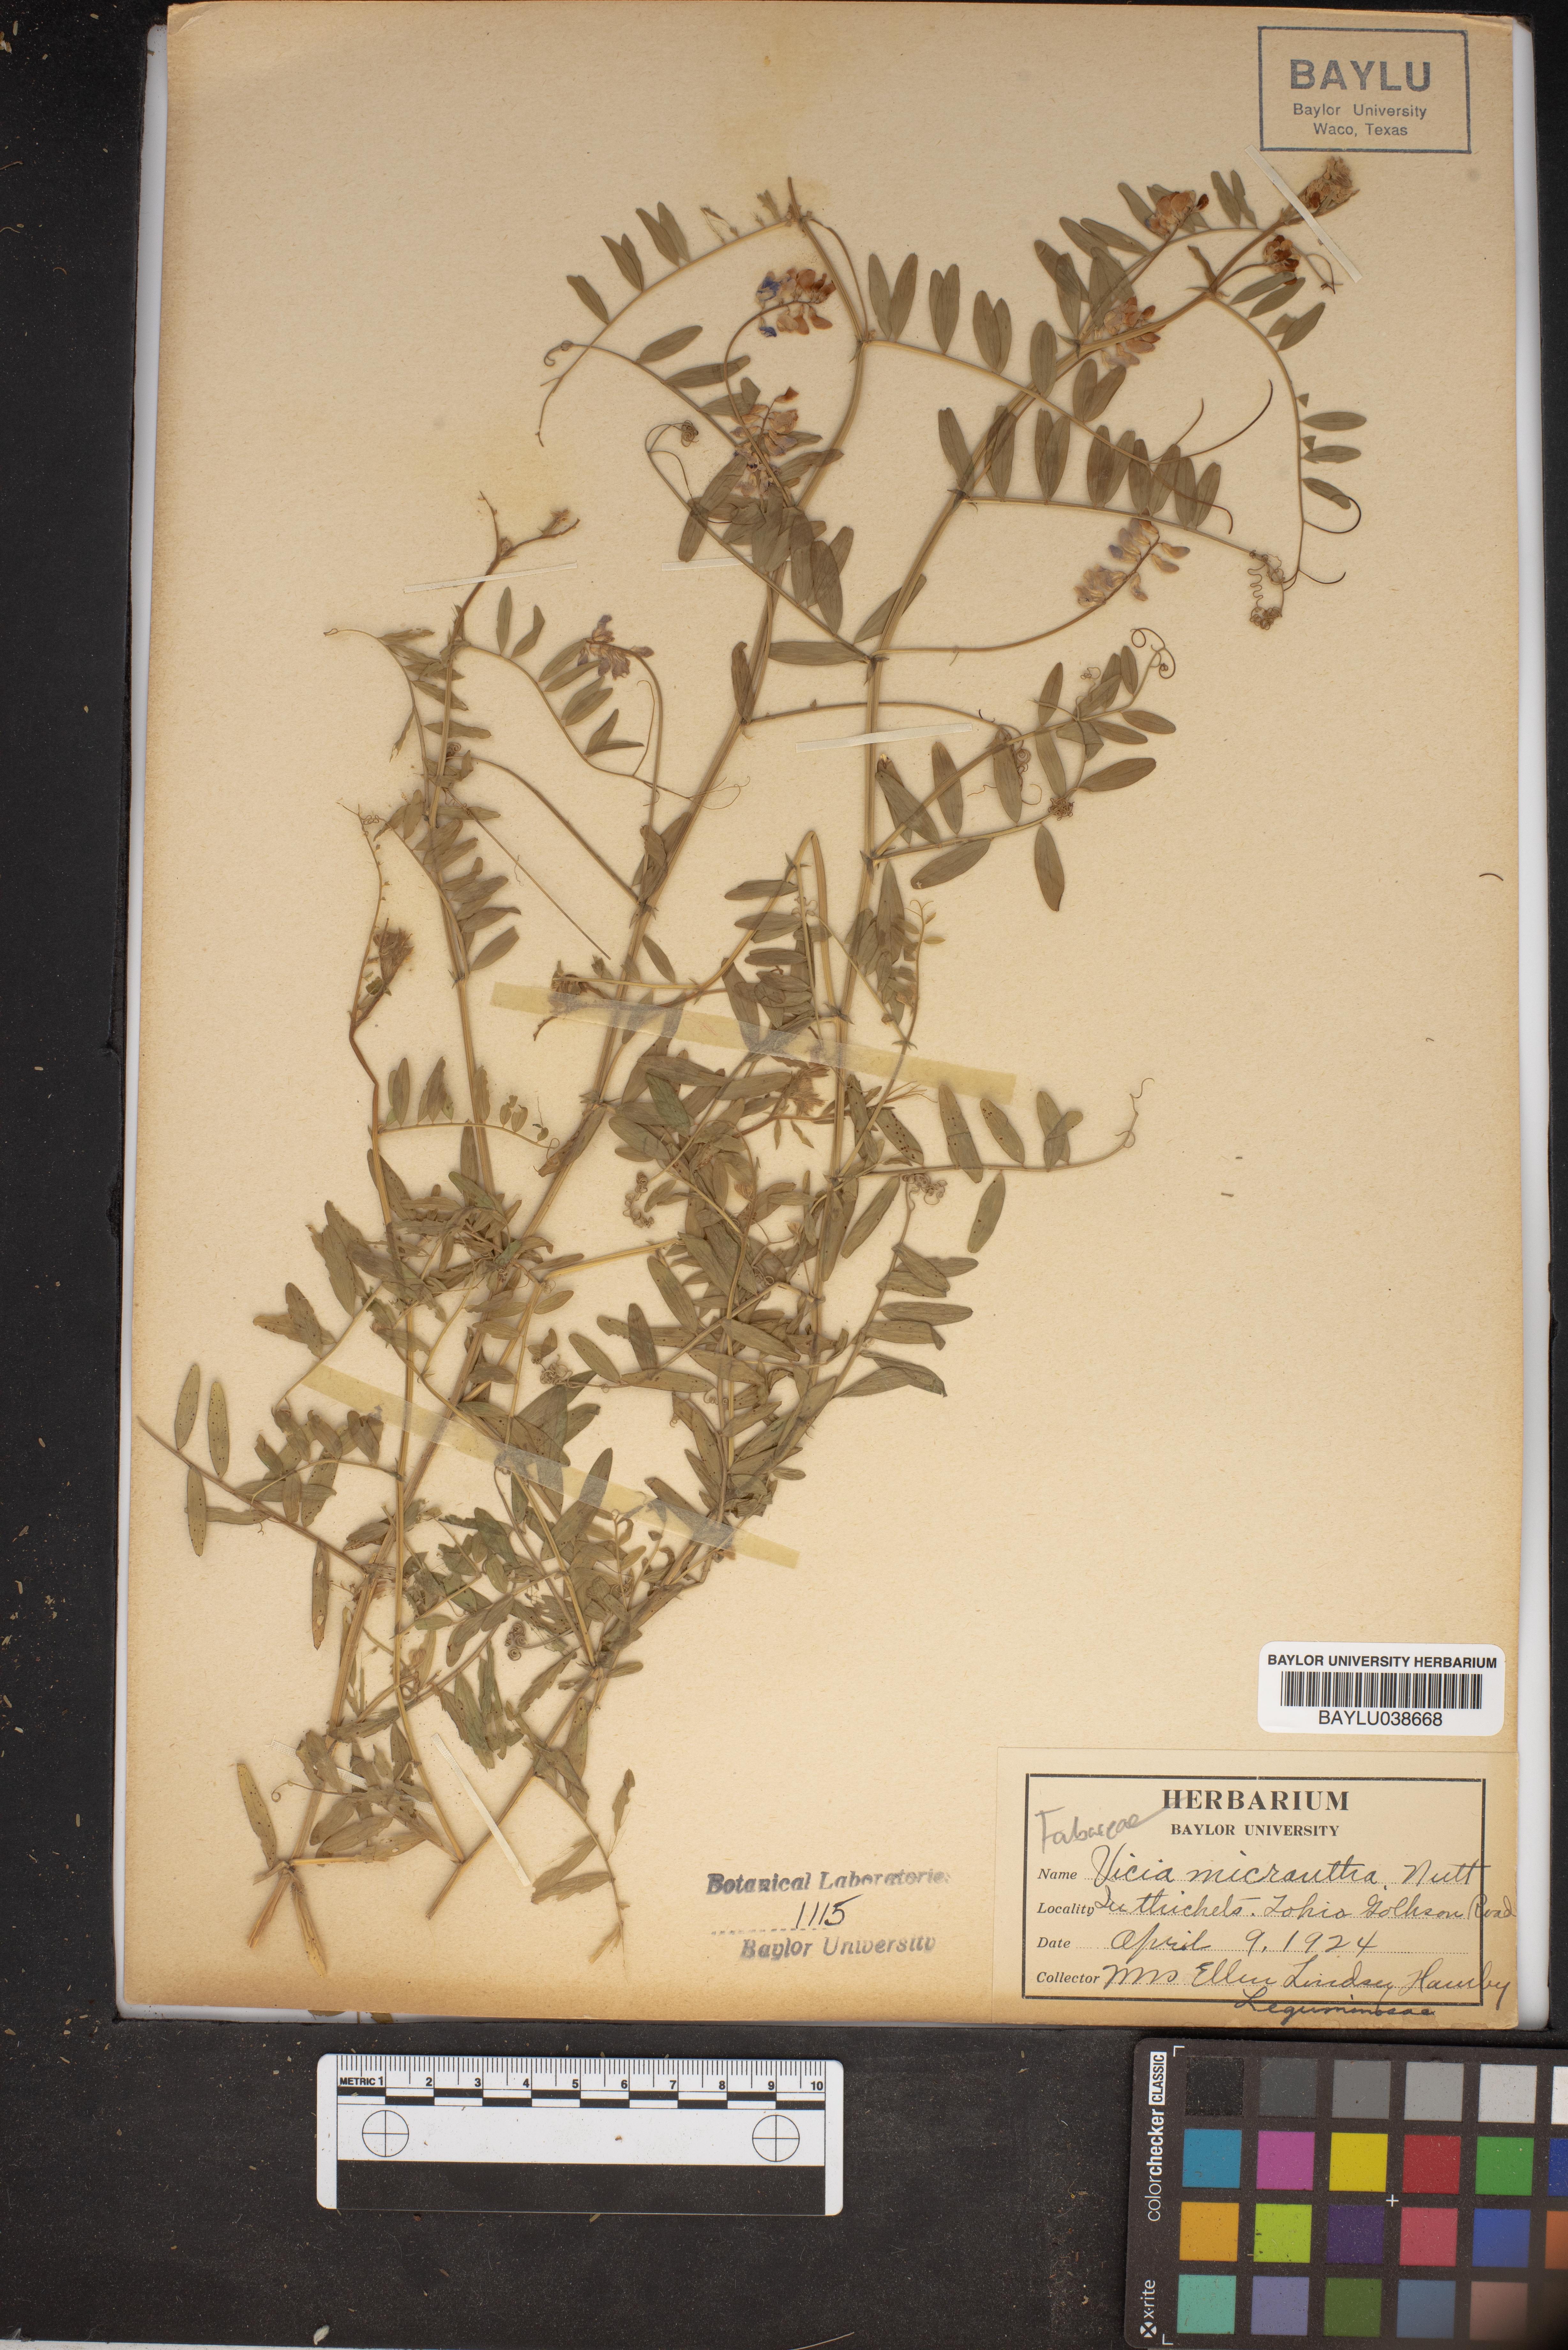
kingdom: Plantae
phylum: Tracheophyta
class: Magnoliopsida
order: Fabales
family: Fabaceae
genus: Vicia
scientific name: Vicia minutiflora
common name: Pygmy-flower vetch
